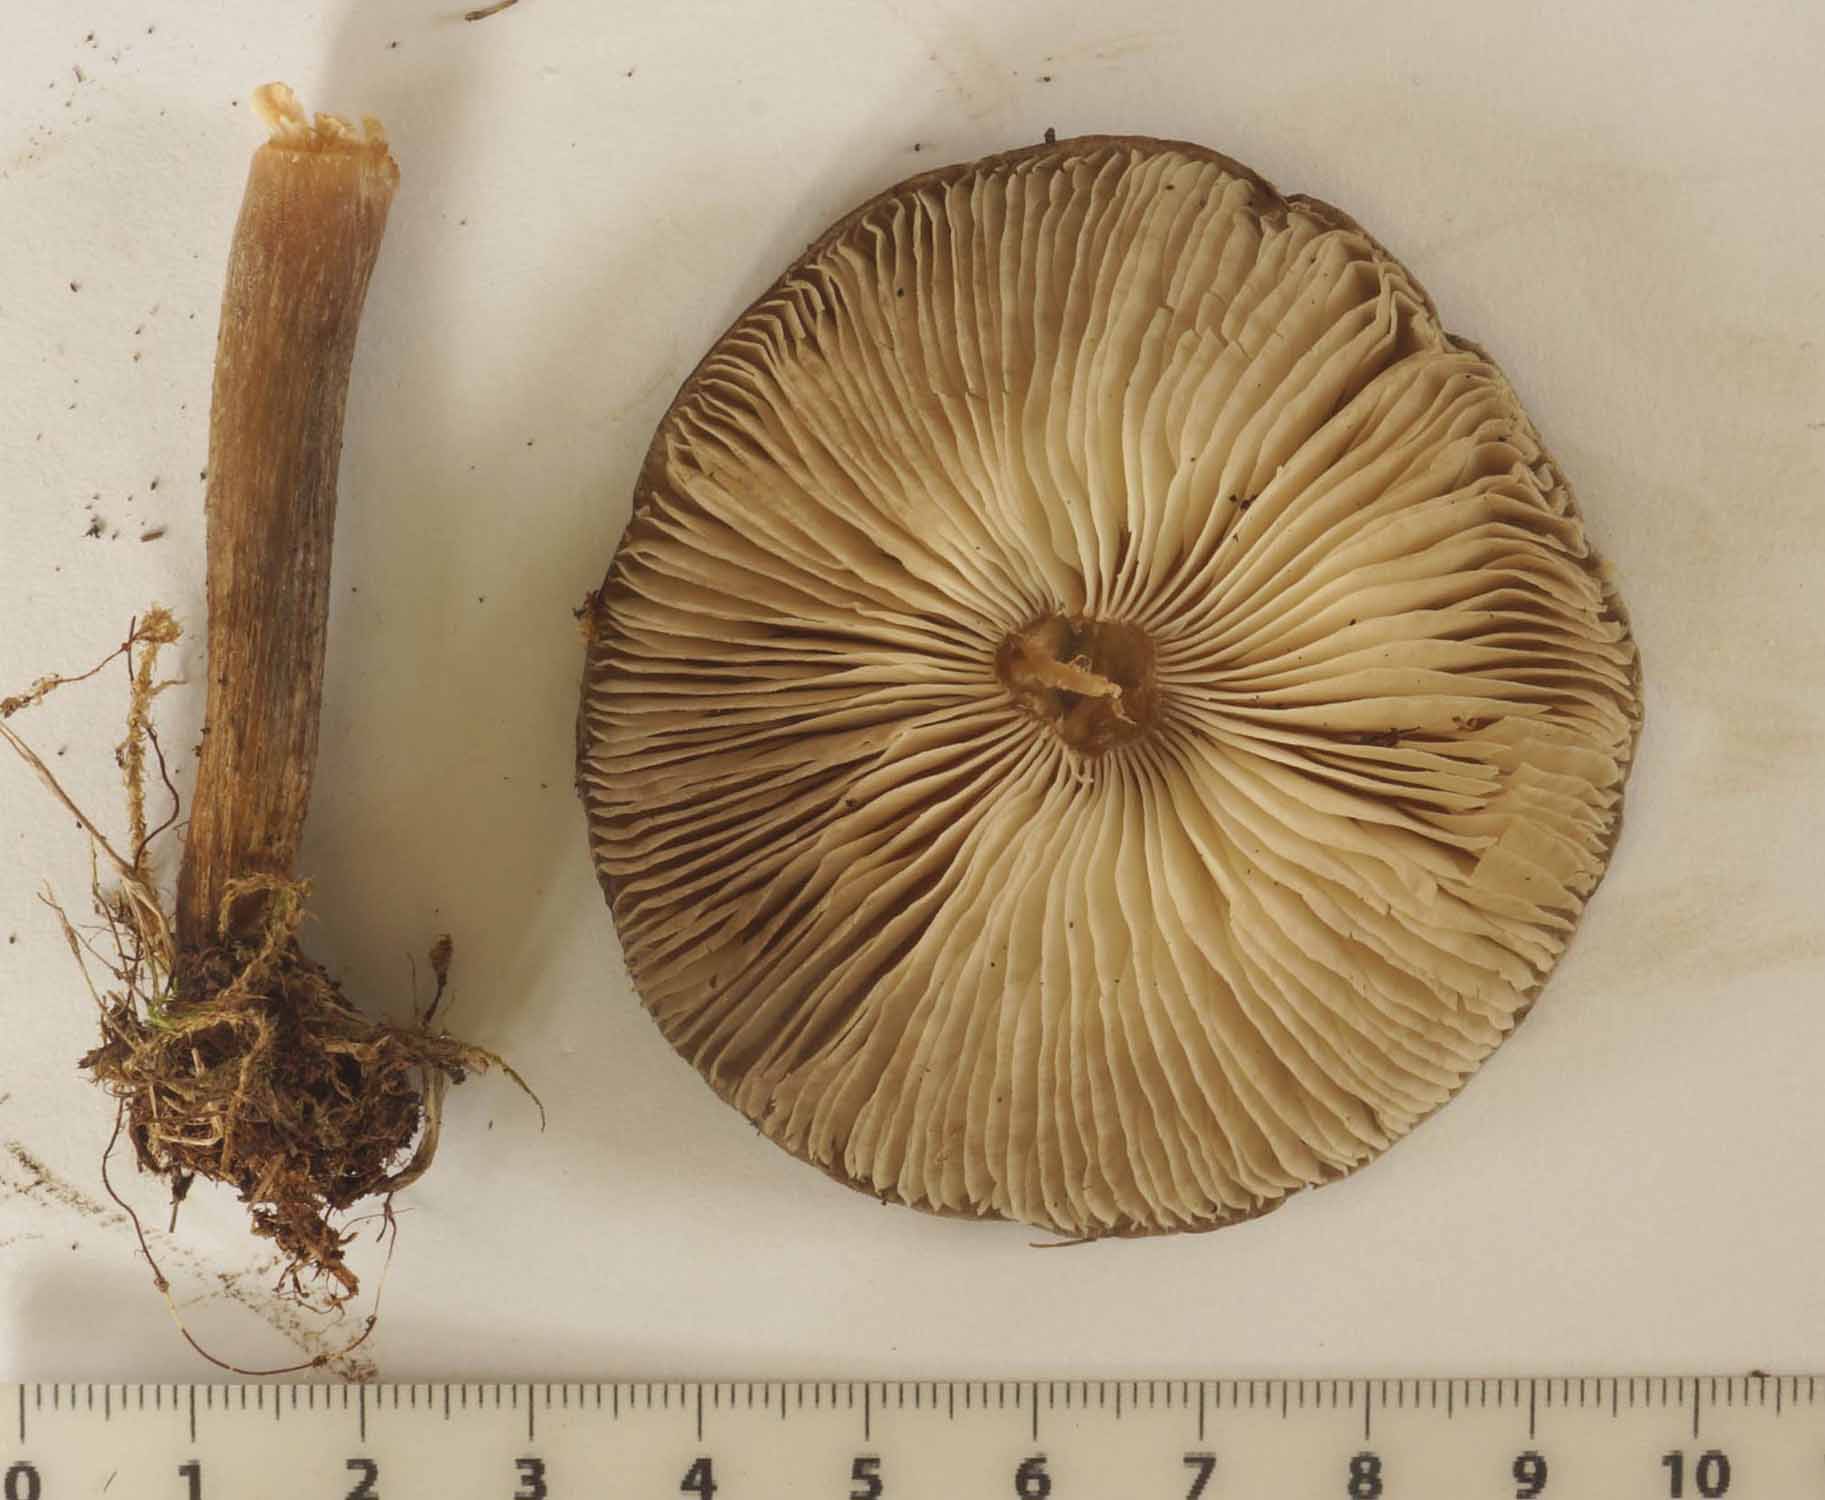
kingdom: Fungi
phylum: Basidiomycota
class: Agaricomycetes
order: Agaricales
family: Tricholomataceae
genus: Melanoleuca
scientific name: Melanoleuca exscissa
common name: gusten munkehat
